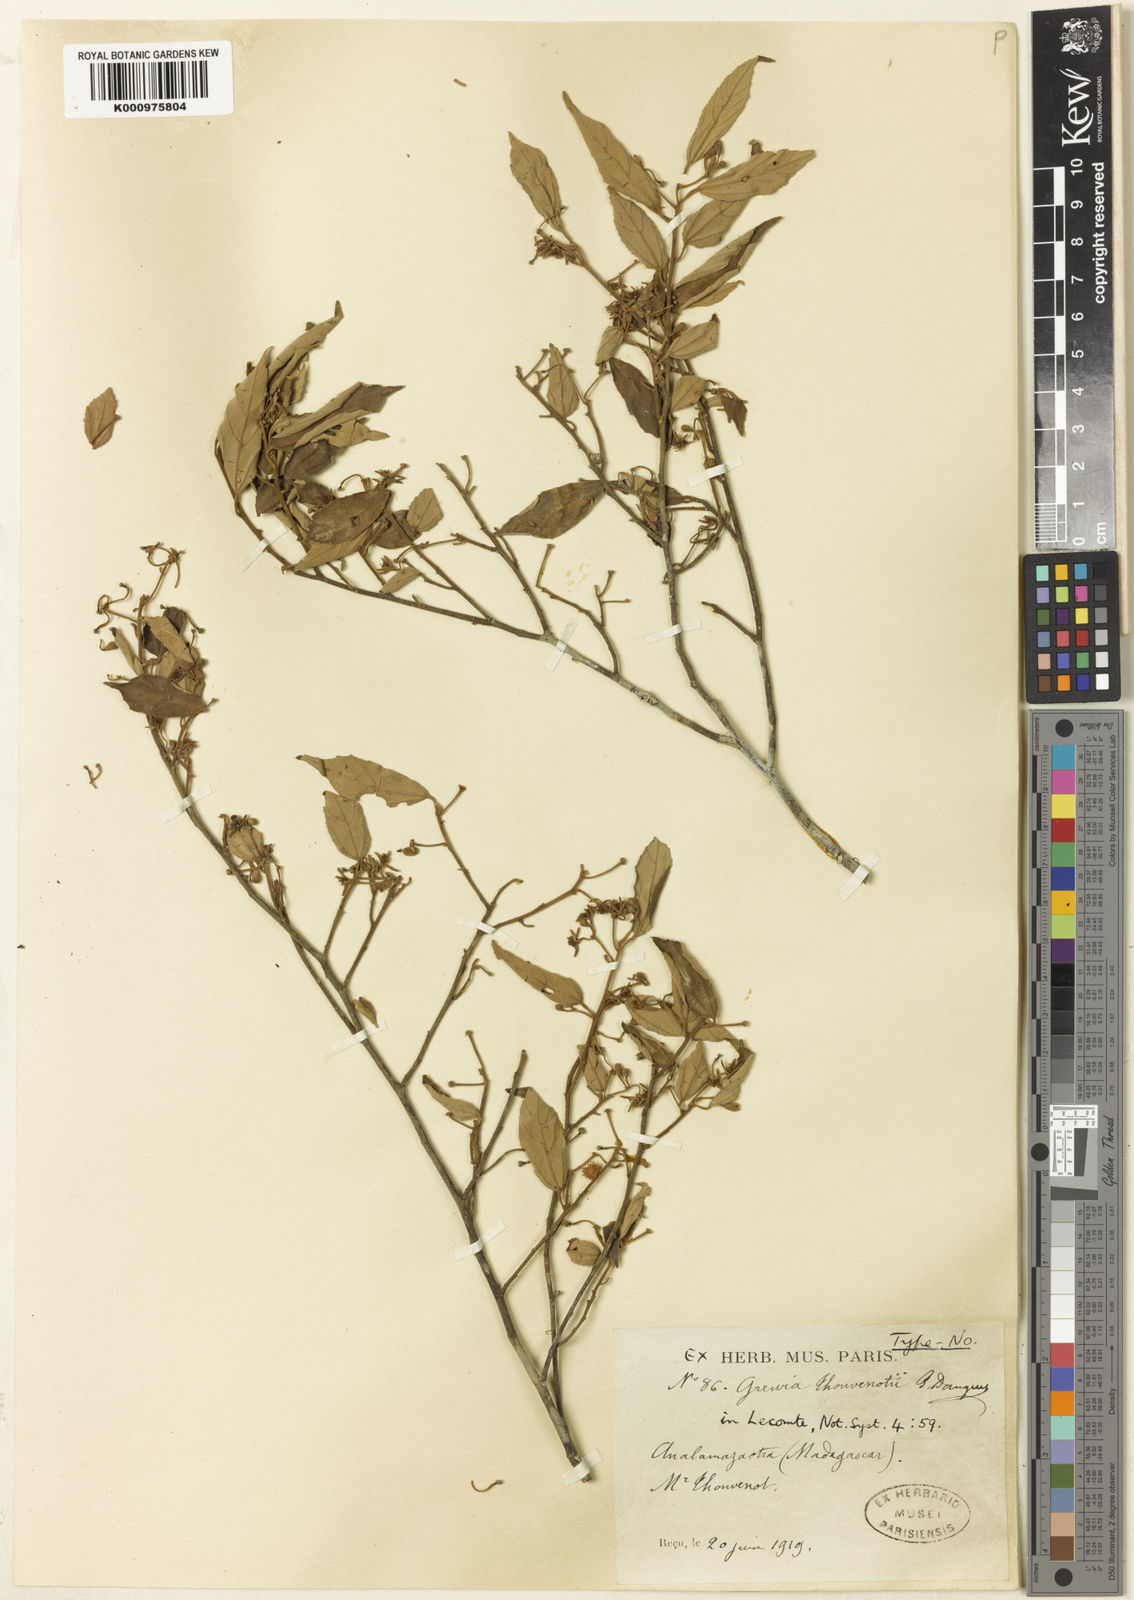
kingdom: Plantae
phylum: Tracheophyta
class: Magnoliopsida
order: Malvales
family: Malvaceae
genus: Grewia
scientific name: Grewia thouvenotii
